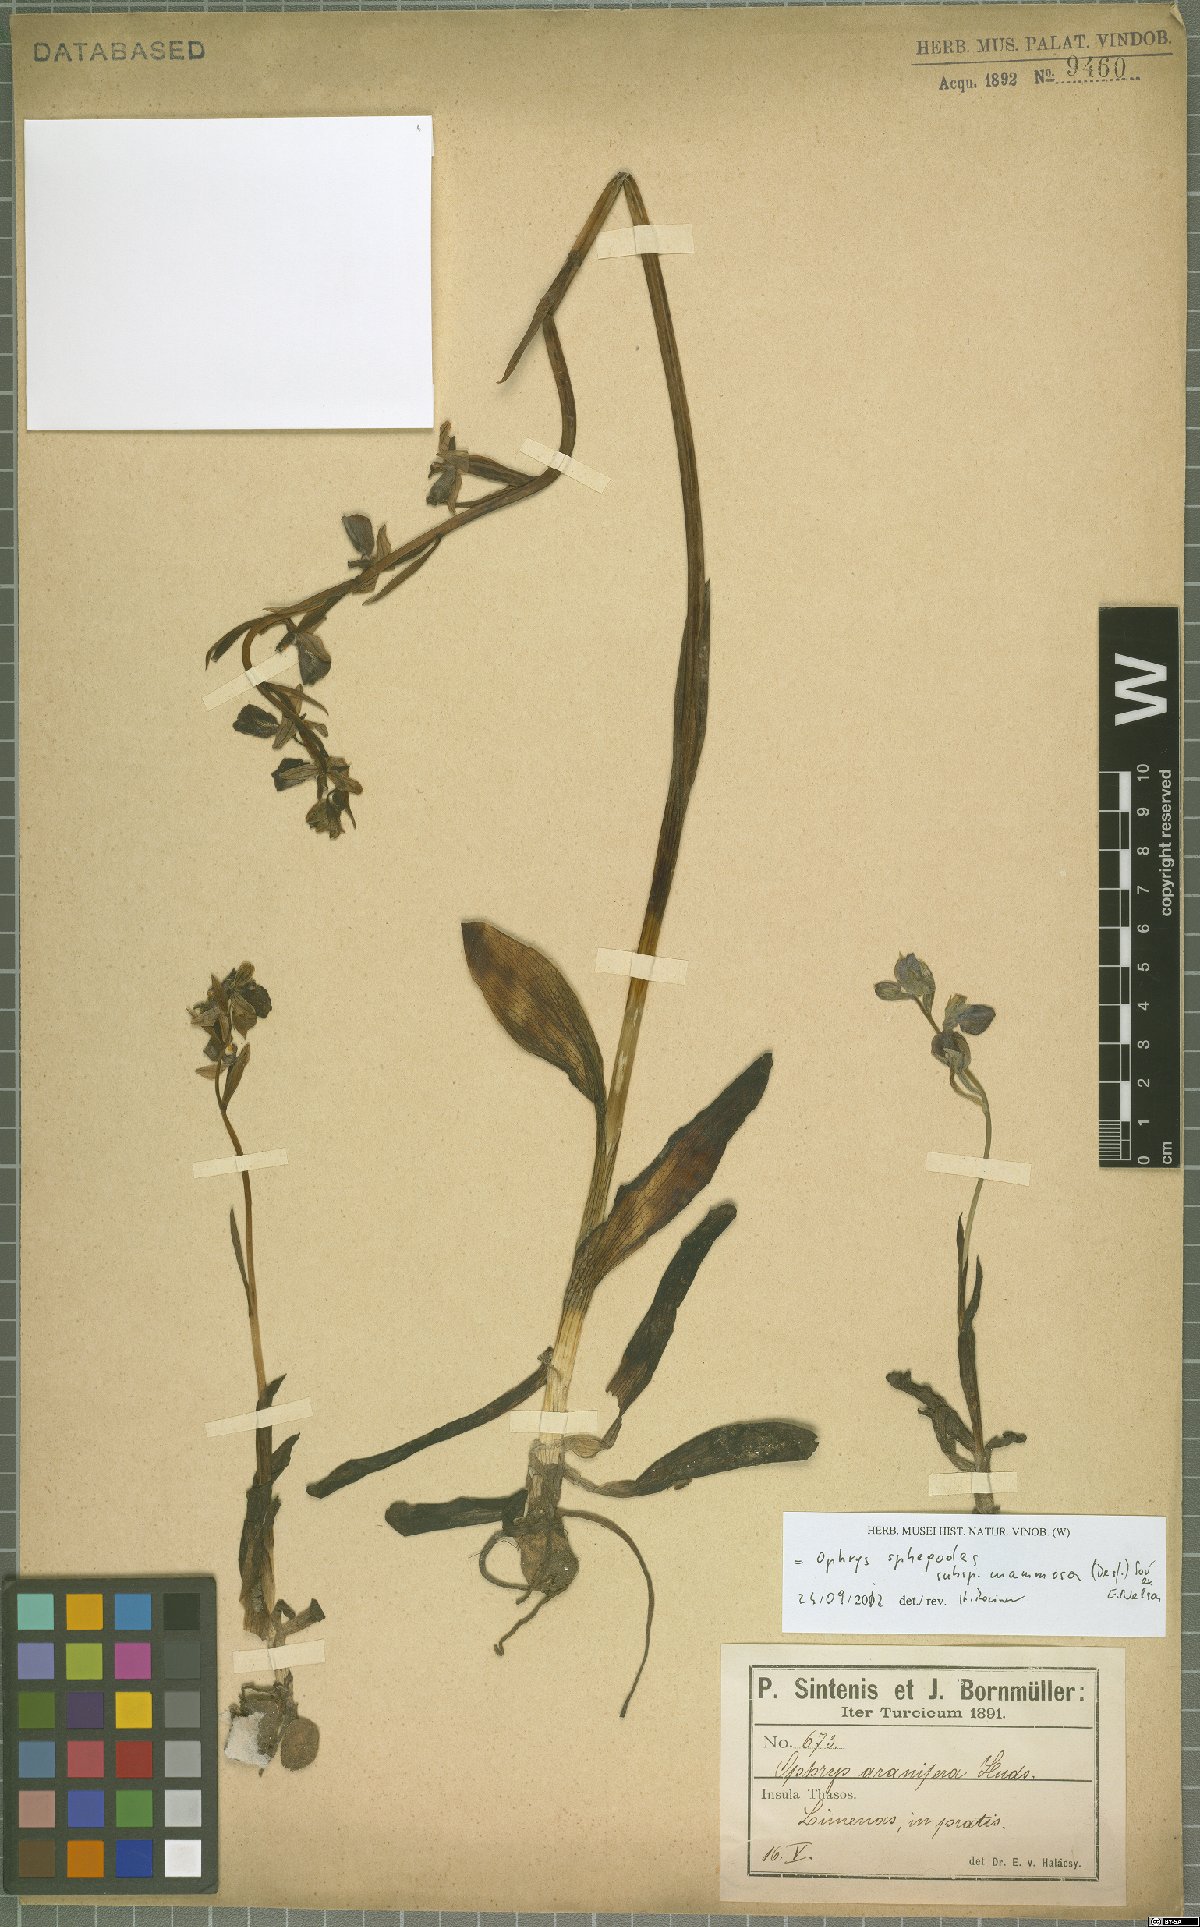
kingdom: Plantae
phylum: Tracheophyta
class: Liliopsida
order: Asparagales
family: Orchidaceae
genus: Ophrys
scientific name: Ophrys sphegodes
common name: Early spider-orchid
